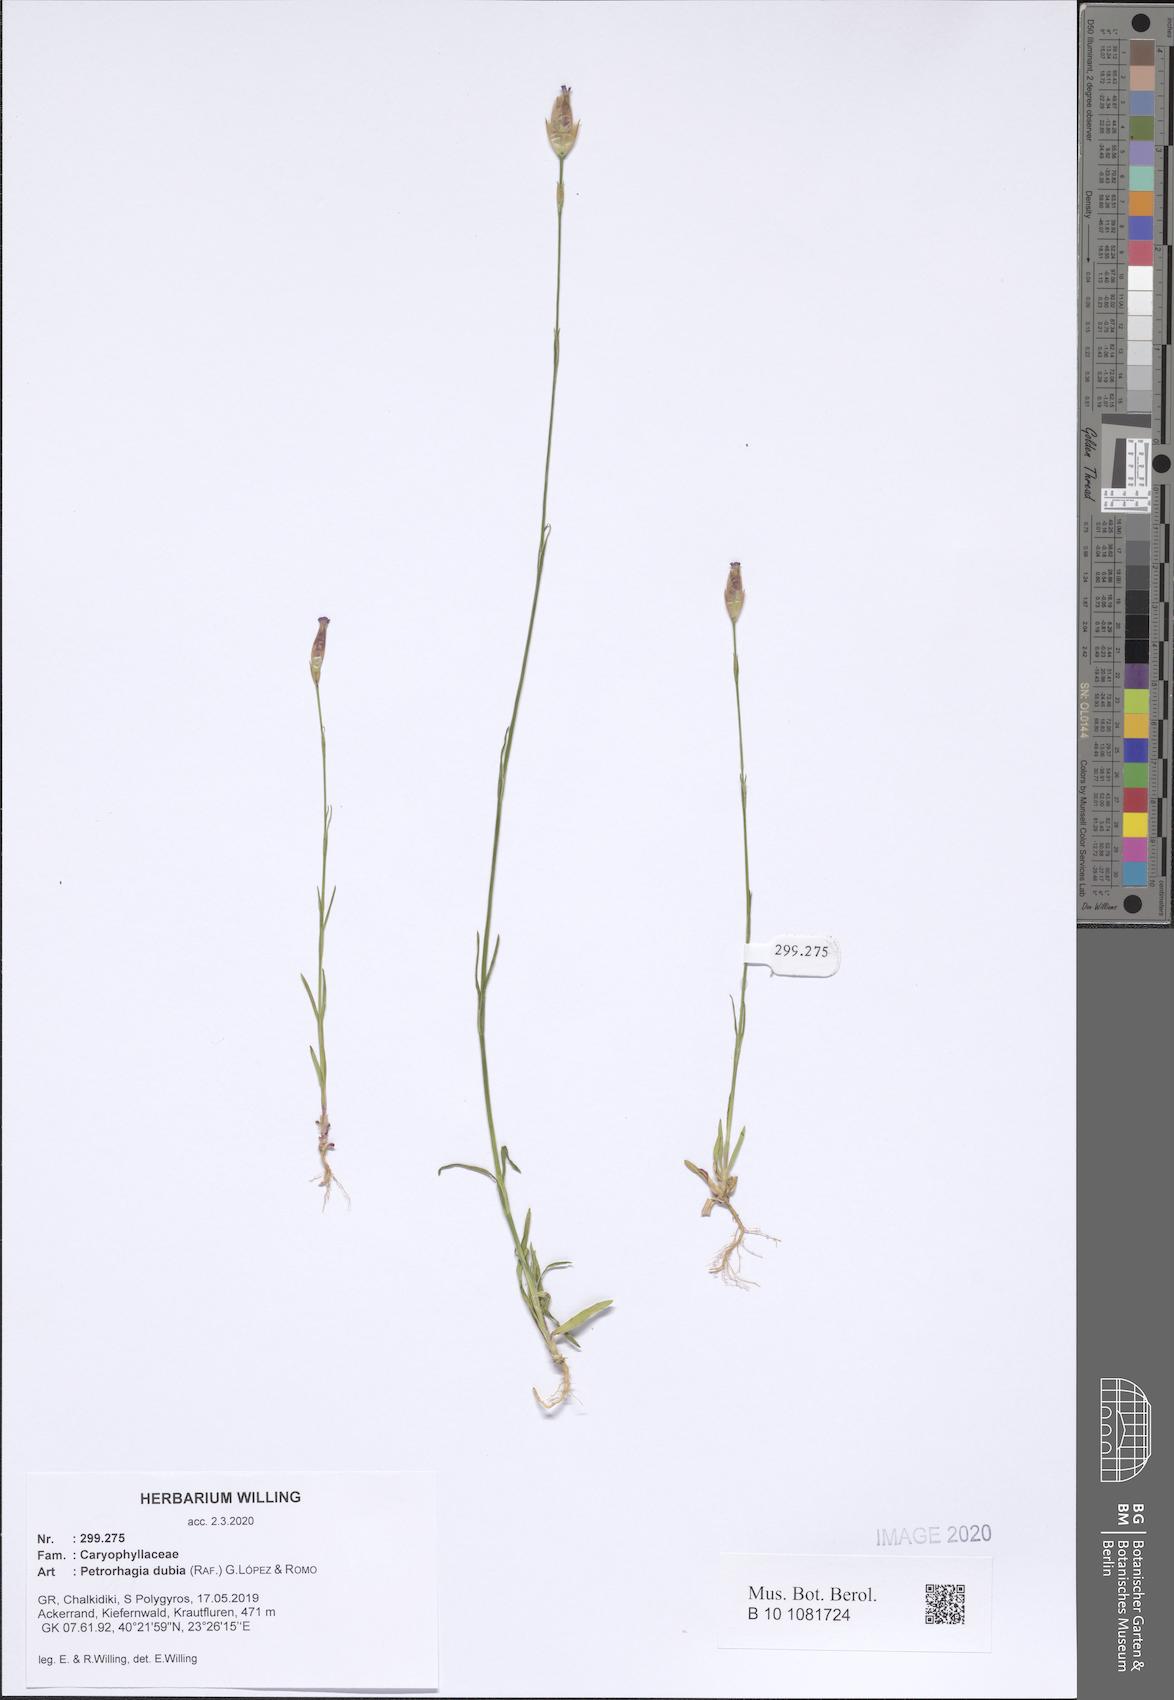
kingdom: Plantae
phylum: Tracheophyta
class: Magnoliopsida
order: Caryophyllales
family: Caryophyllaceae
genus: Petrorhagia
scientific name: Petrorhagia dubia
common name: Hairypink
